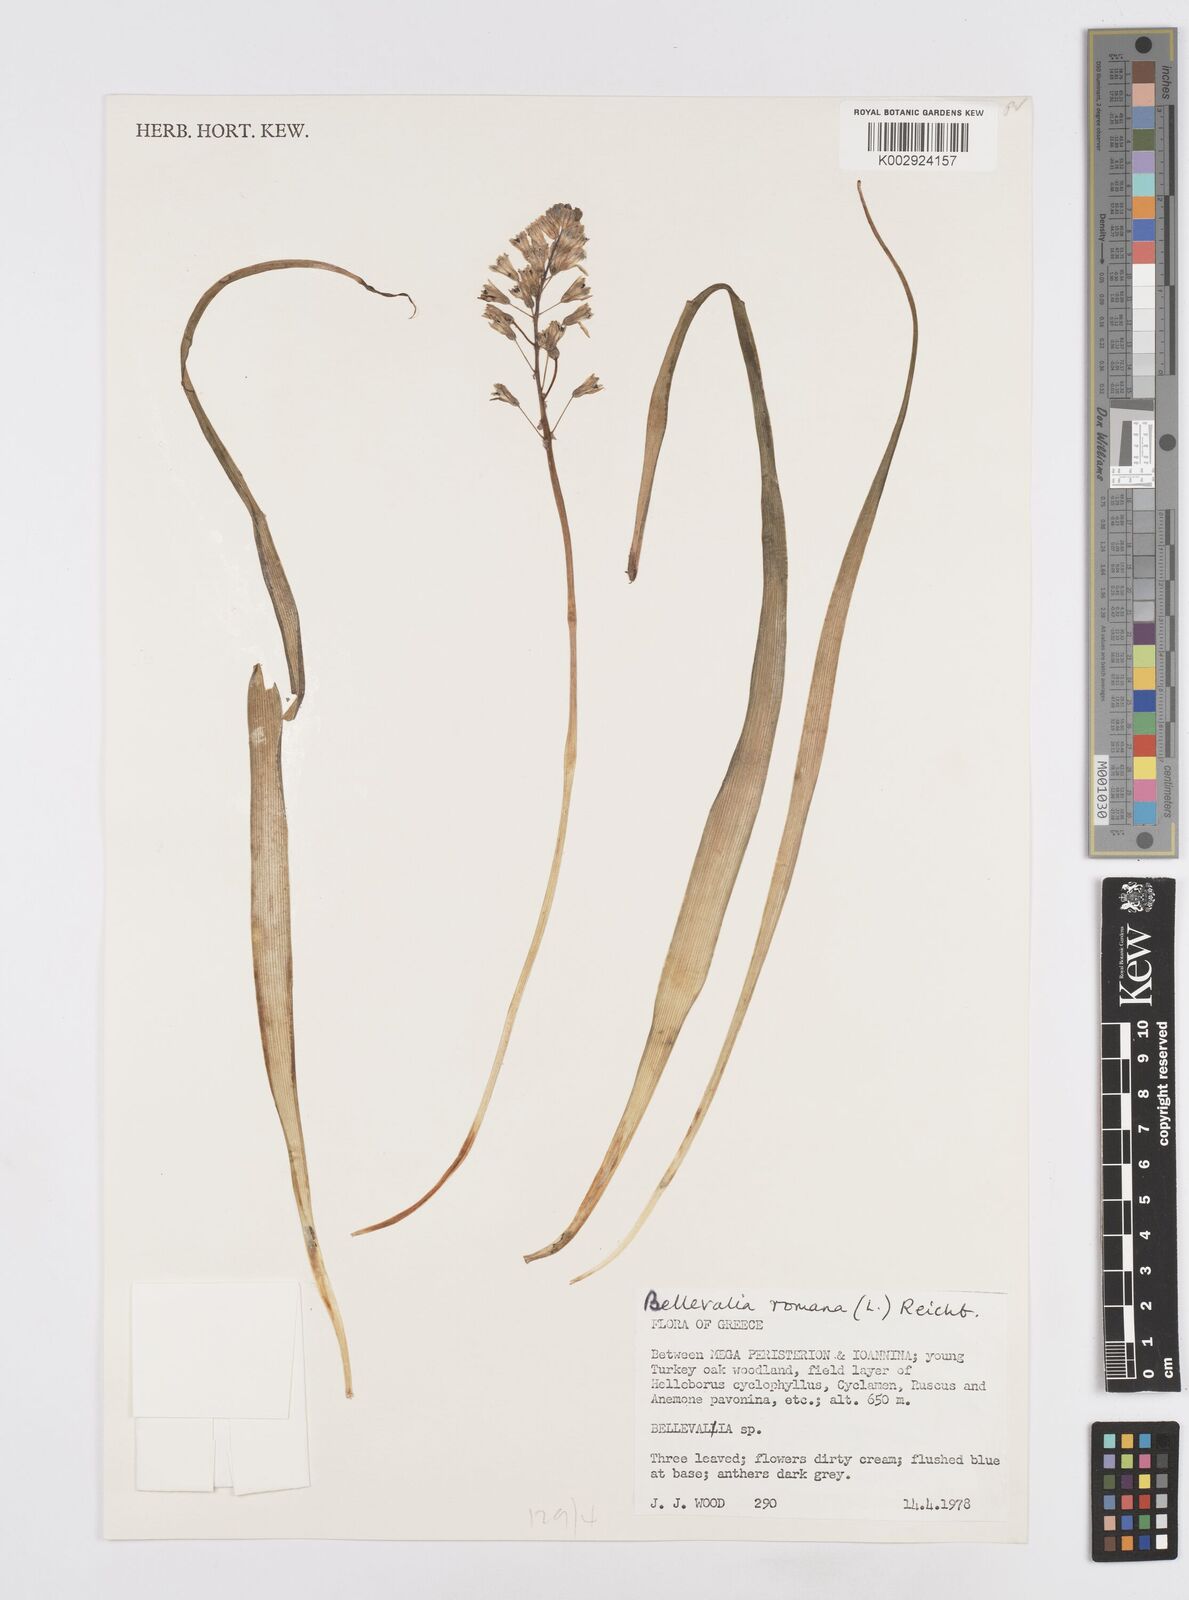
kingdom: Plantae
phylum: Tracheophyta
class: Liliopsida
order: Asparagales
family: Asparagaceae
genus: Bellevalia
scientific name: Bellevalia
